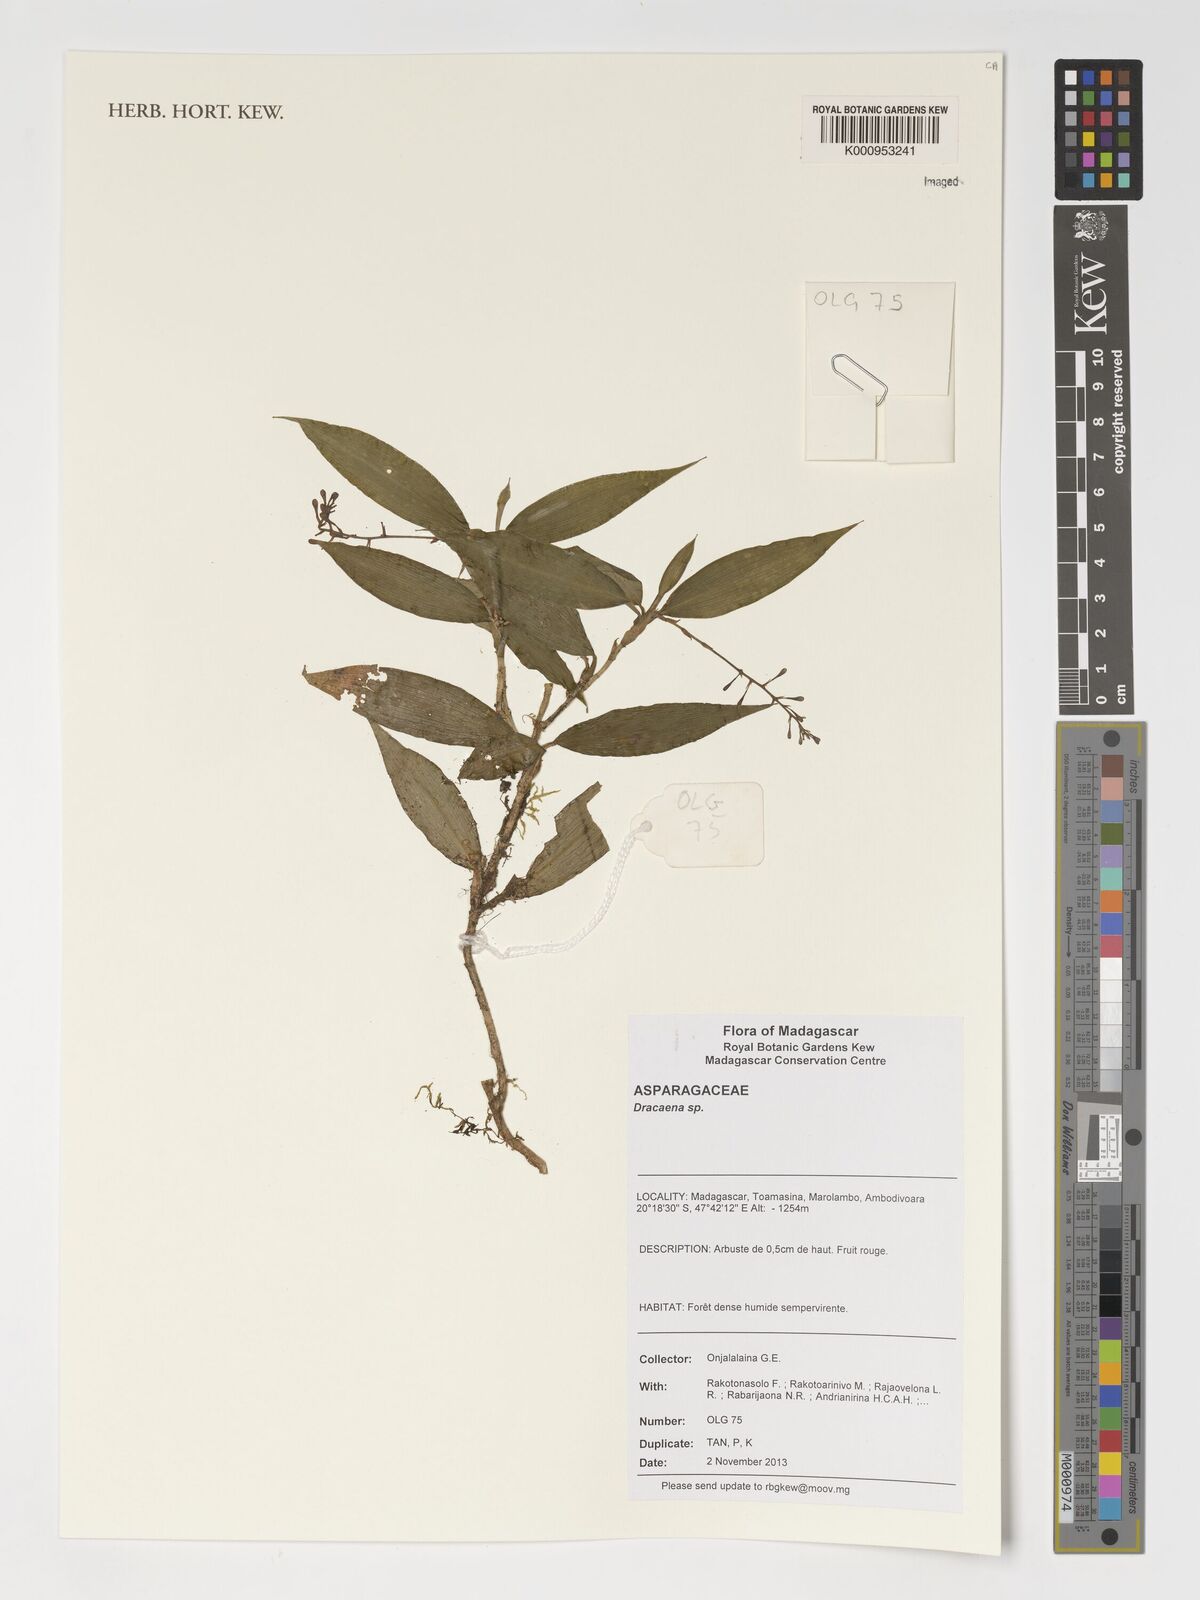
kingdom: Plantae
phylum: Tracheophyta
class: Liliopsida
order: Asparagales
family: Asparagaceae
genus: Dracaena
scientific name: Dracaena
